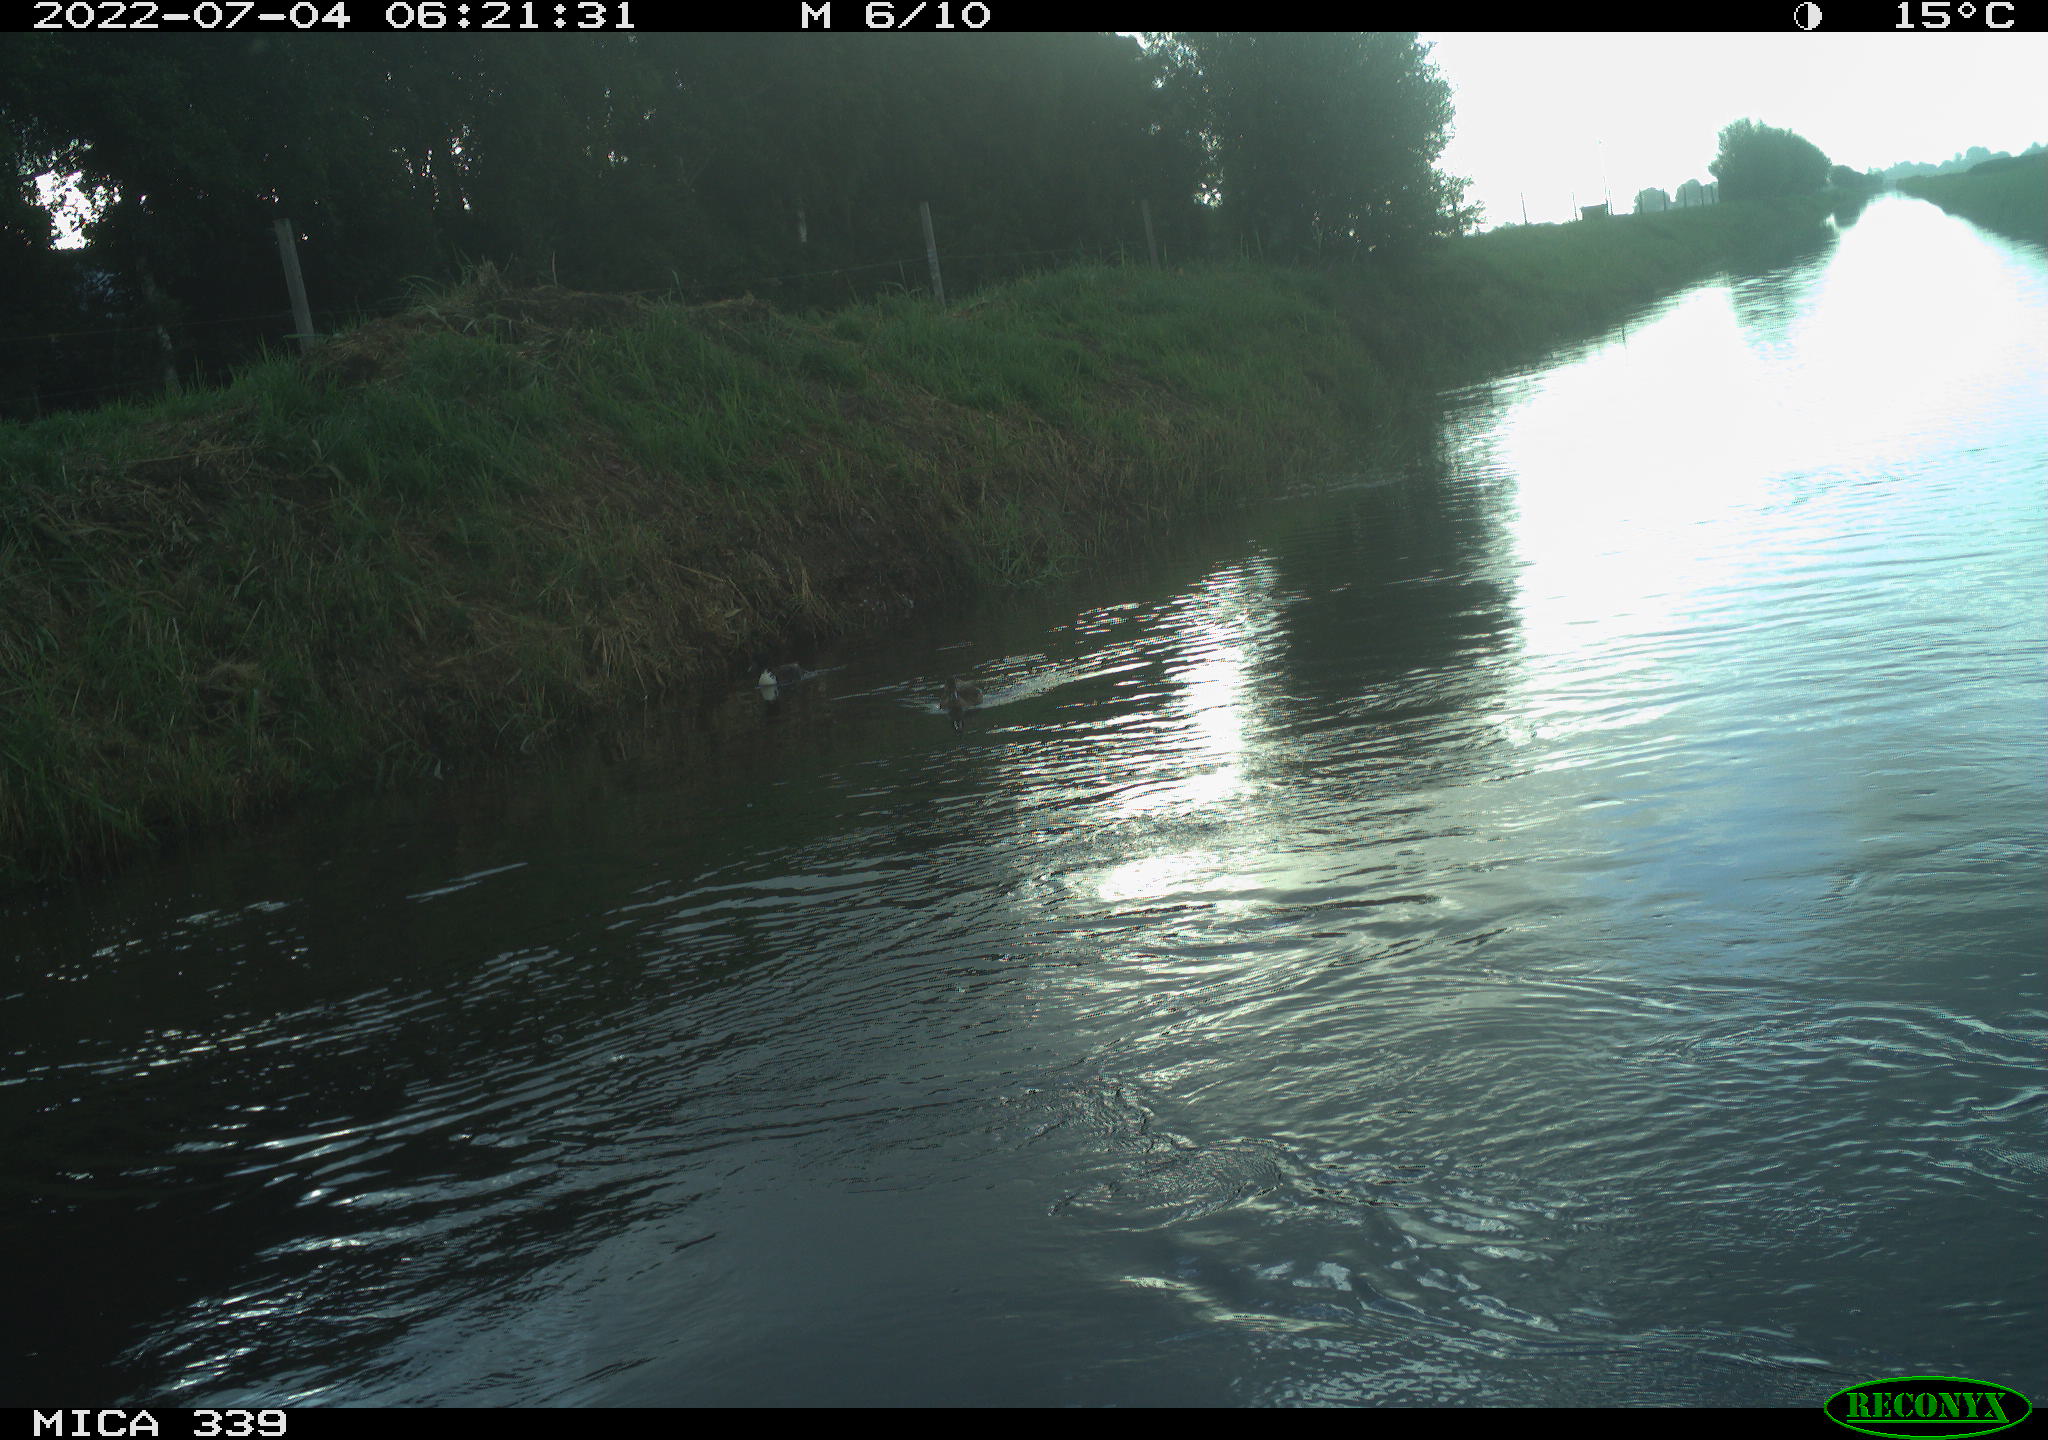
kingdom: Animalia
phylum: Chordata
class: Aves
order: Pelecaniformes
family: Ardeidae
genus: Ardea
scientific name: Ardea
